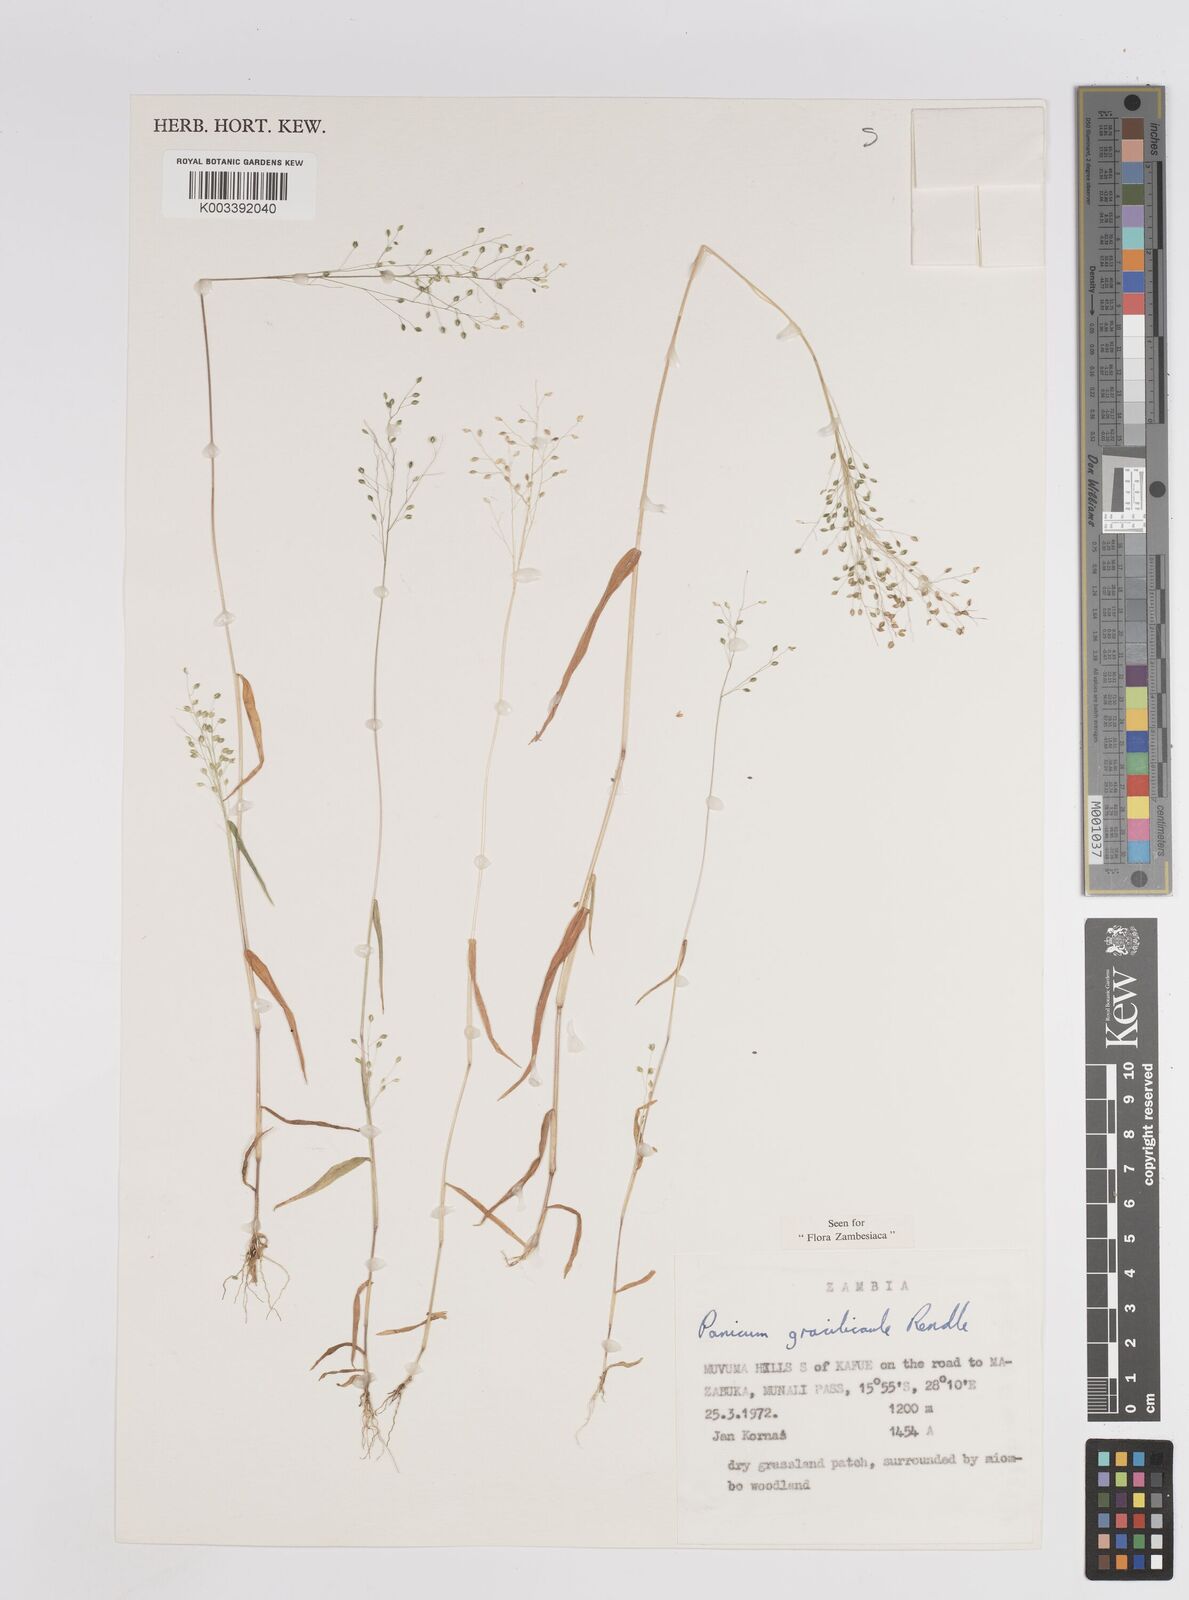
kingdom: Plantae
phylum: Tracheophyta
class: Liliopsida
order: Poales
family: Poaceae
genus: Trichanthecium
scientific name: Trichanthecium gracilicaule
